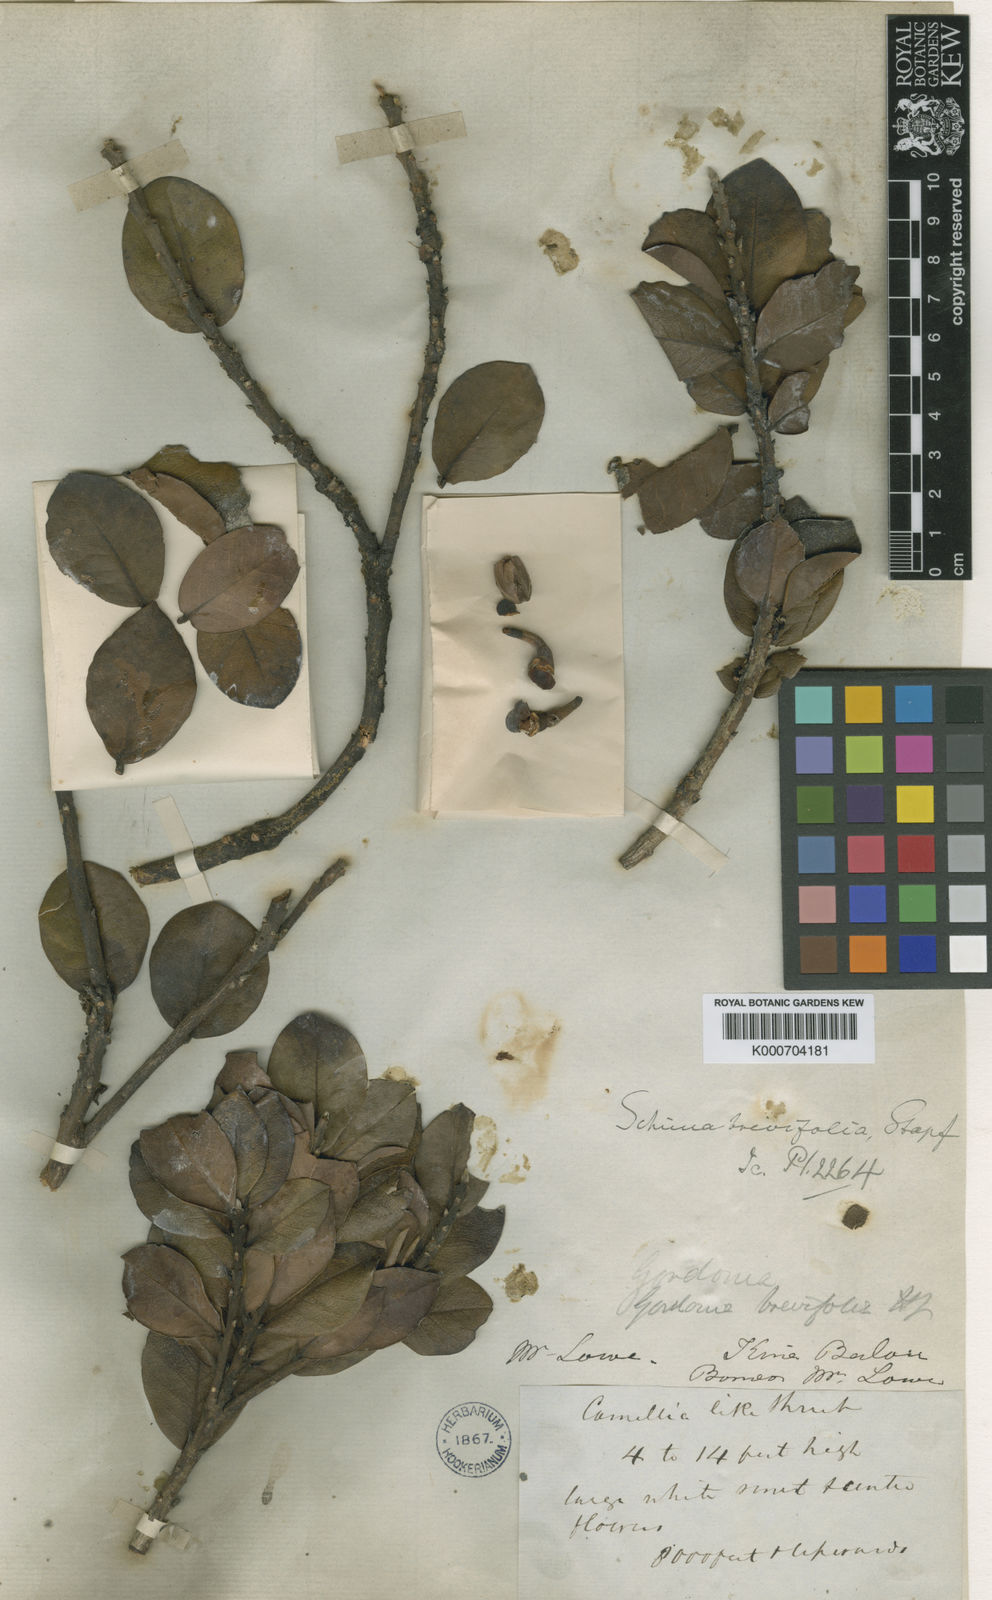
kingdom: Plantae
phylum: Tracheophyta
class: Magnoliopsida
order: Ericales
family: Theaceae
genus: Schima
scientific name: Schima brevifolia
